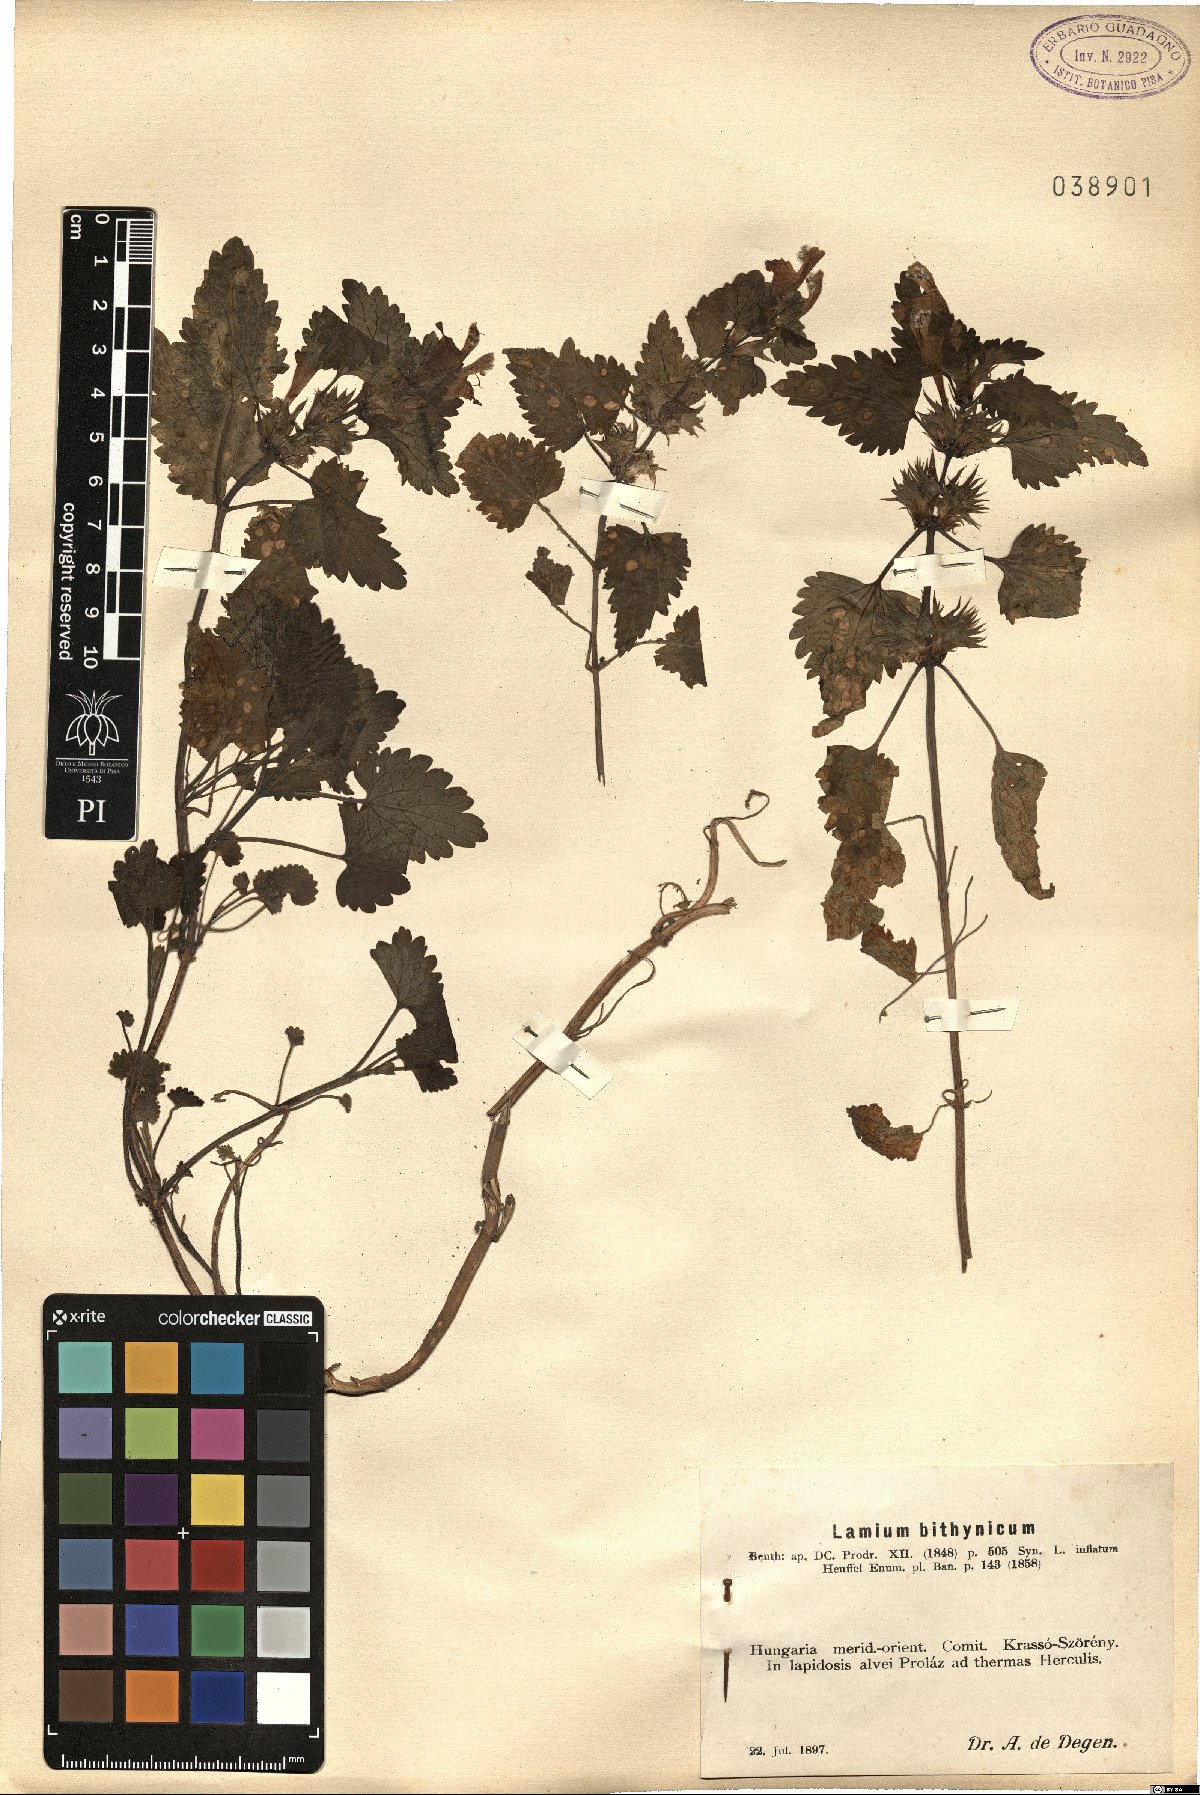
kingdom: Plantae
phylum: Tracheophyta
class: Magnoliopsida
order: Lamiales
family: Lamiaceae
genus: Lamium
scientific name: Lamium garganicum
